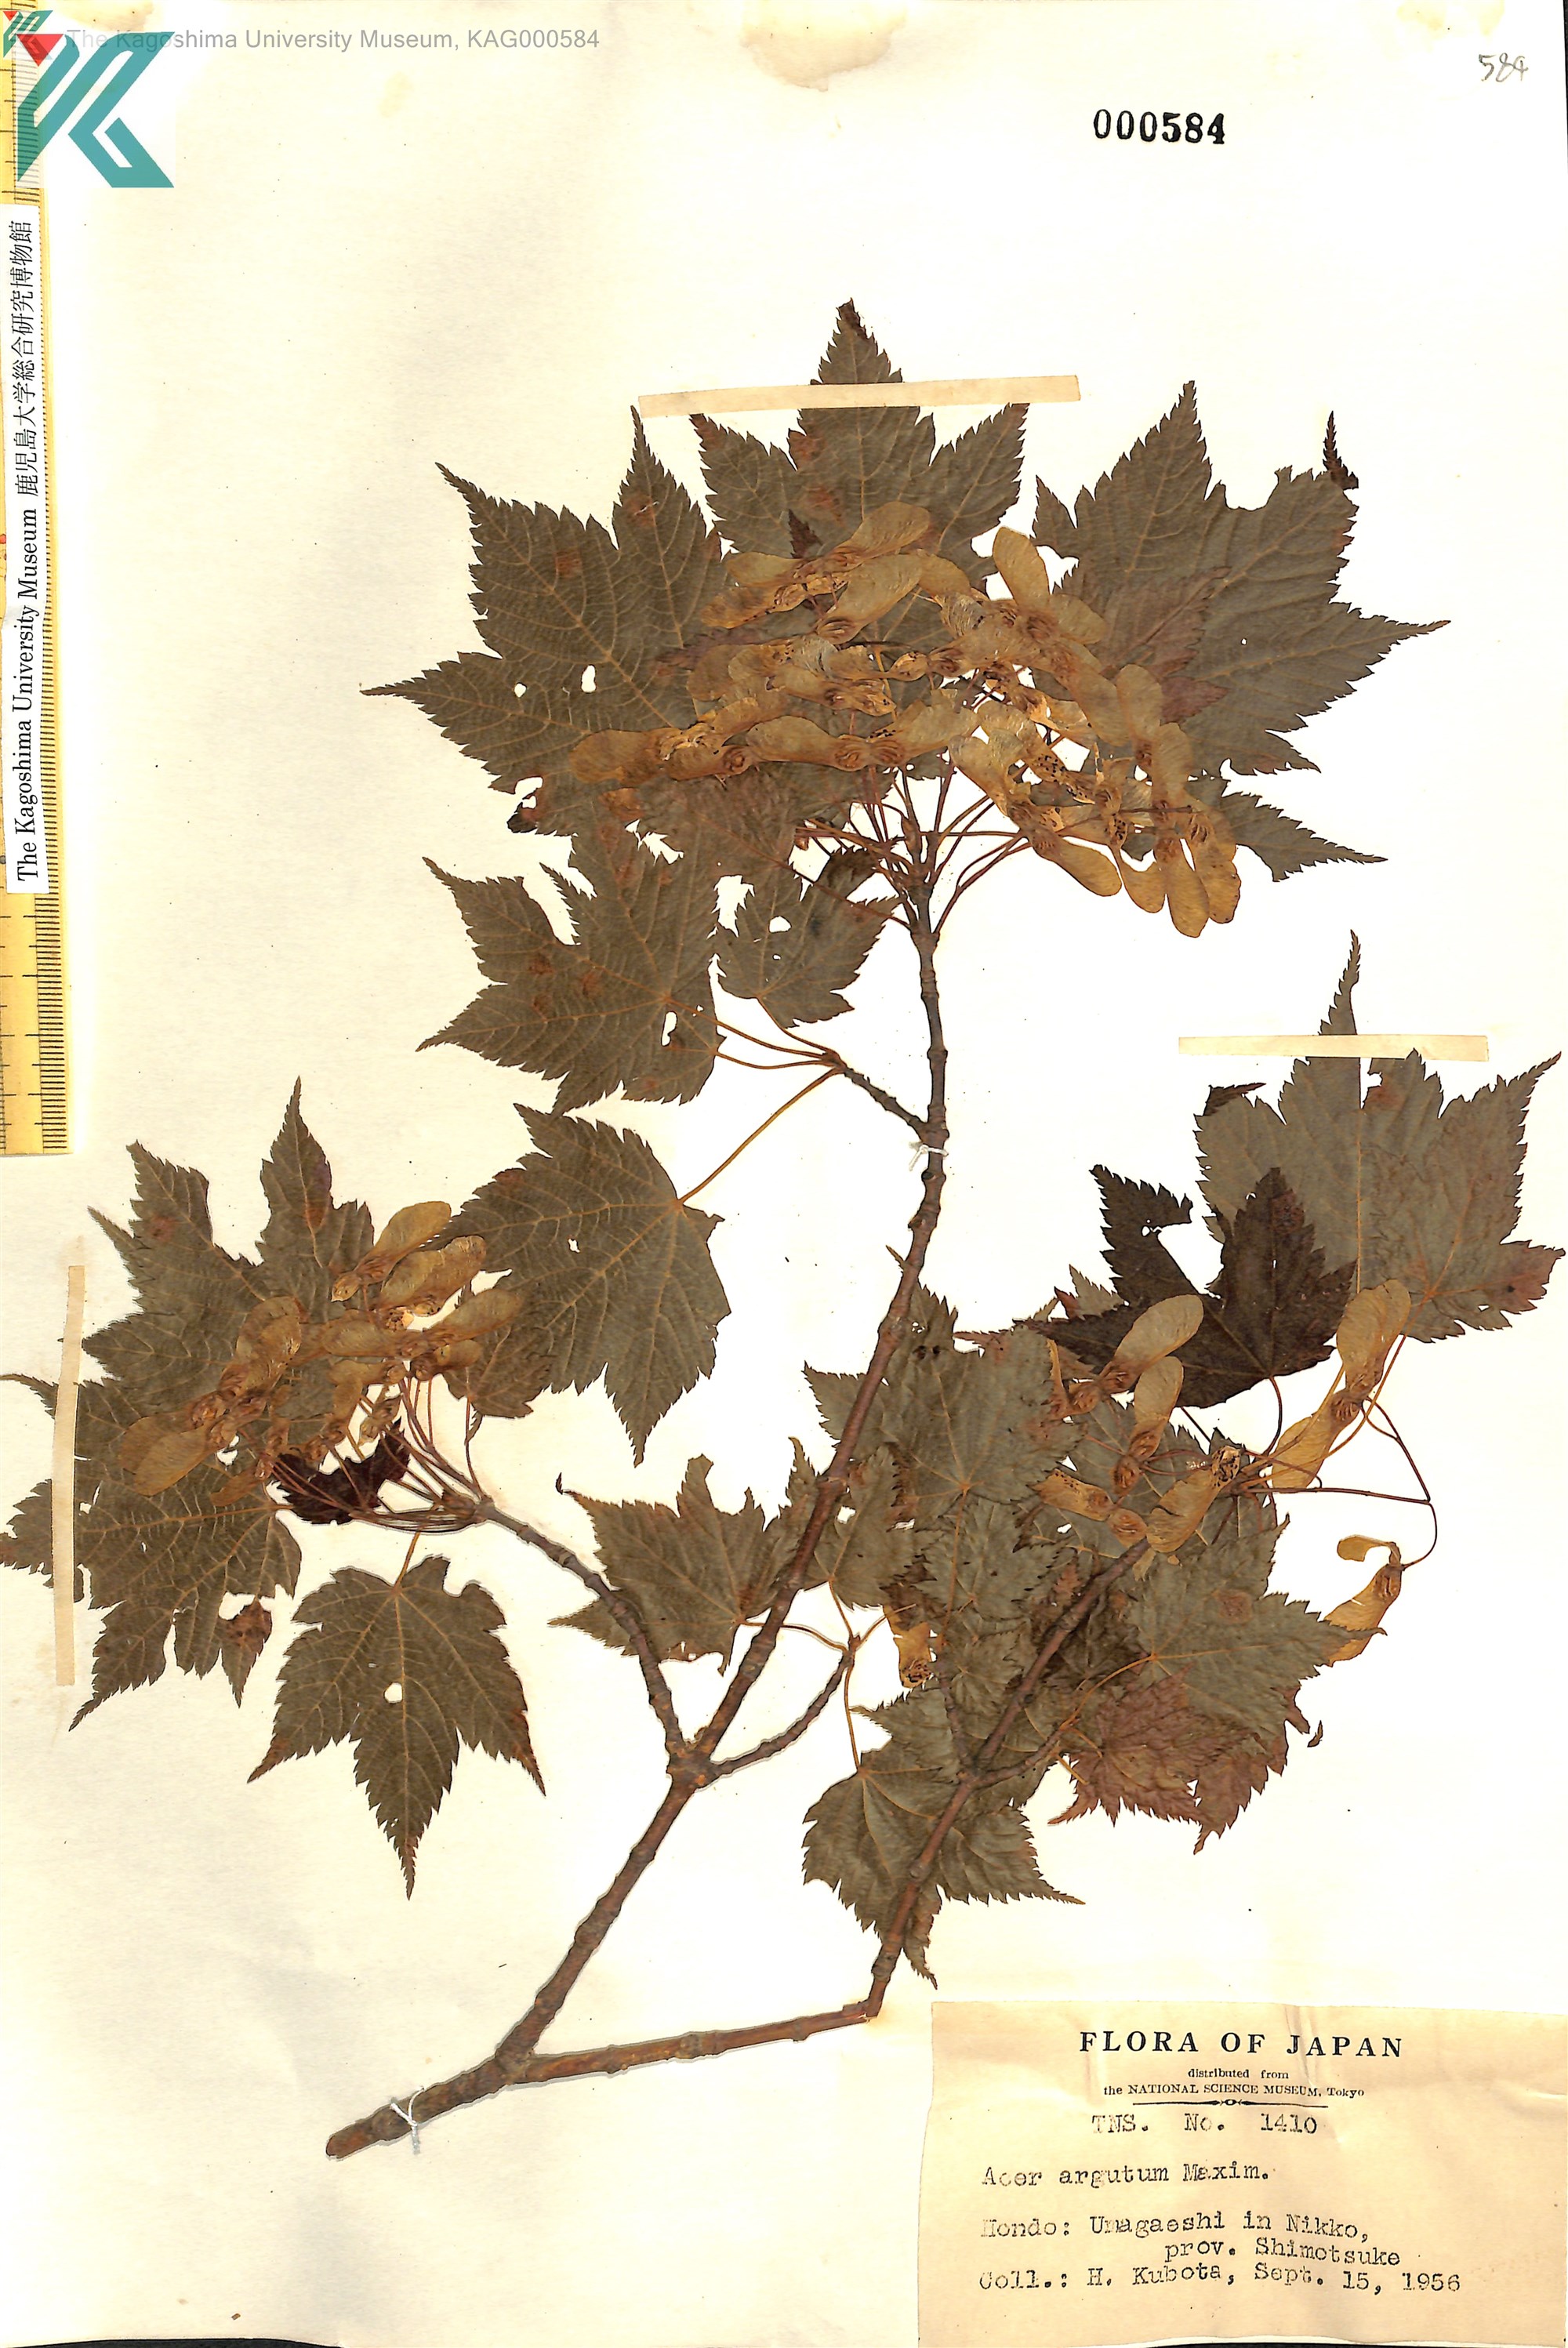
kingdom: Plantae
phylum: Tracheophyta
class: Magnoliopsida
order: Sapindales
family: Sapindaceae
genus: Acer
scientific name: Acer argutum
